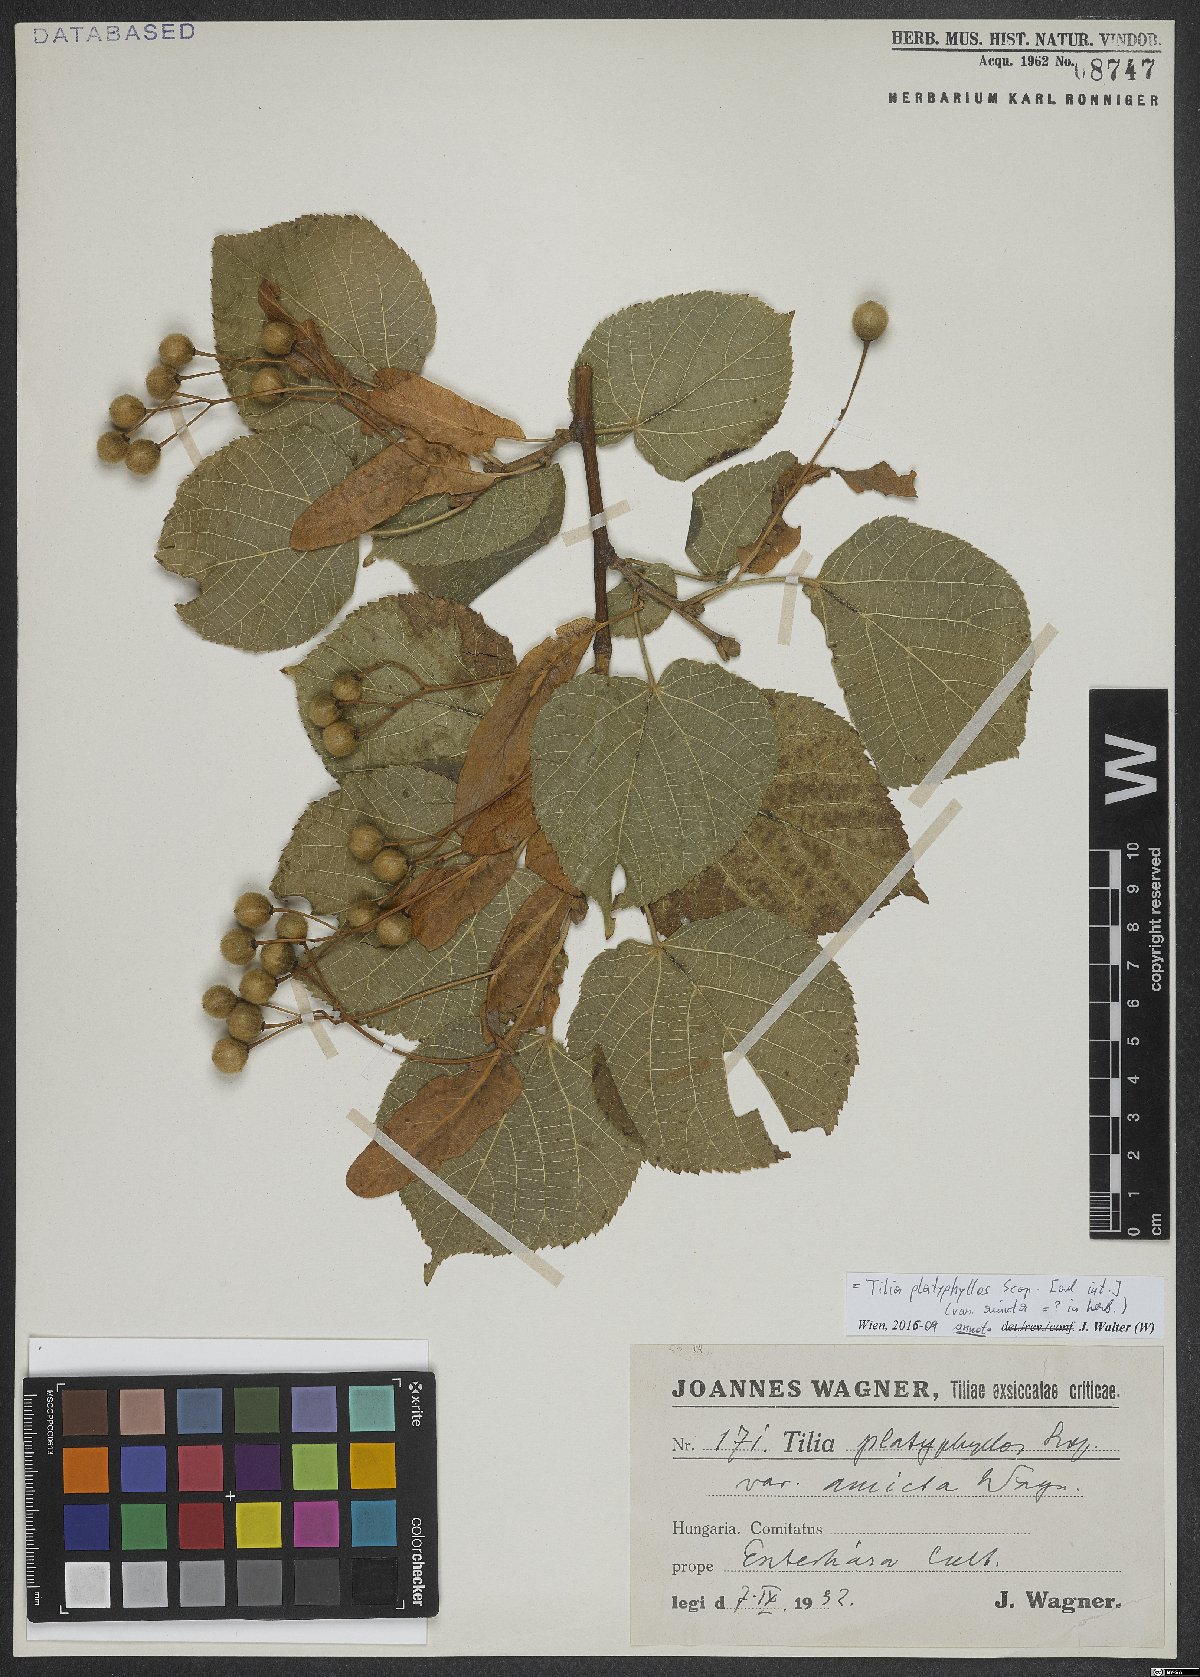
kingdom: Plantae
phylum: Tracheophyta
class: Magnoliopsida
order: Malvales
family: Malvaceae
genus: Tilia
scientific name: Tilia platyphyllos
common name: Large-leaved lime
